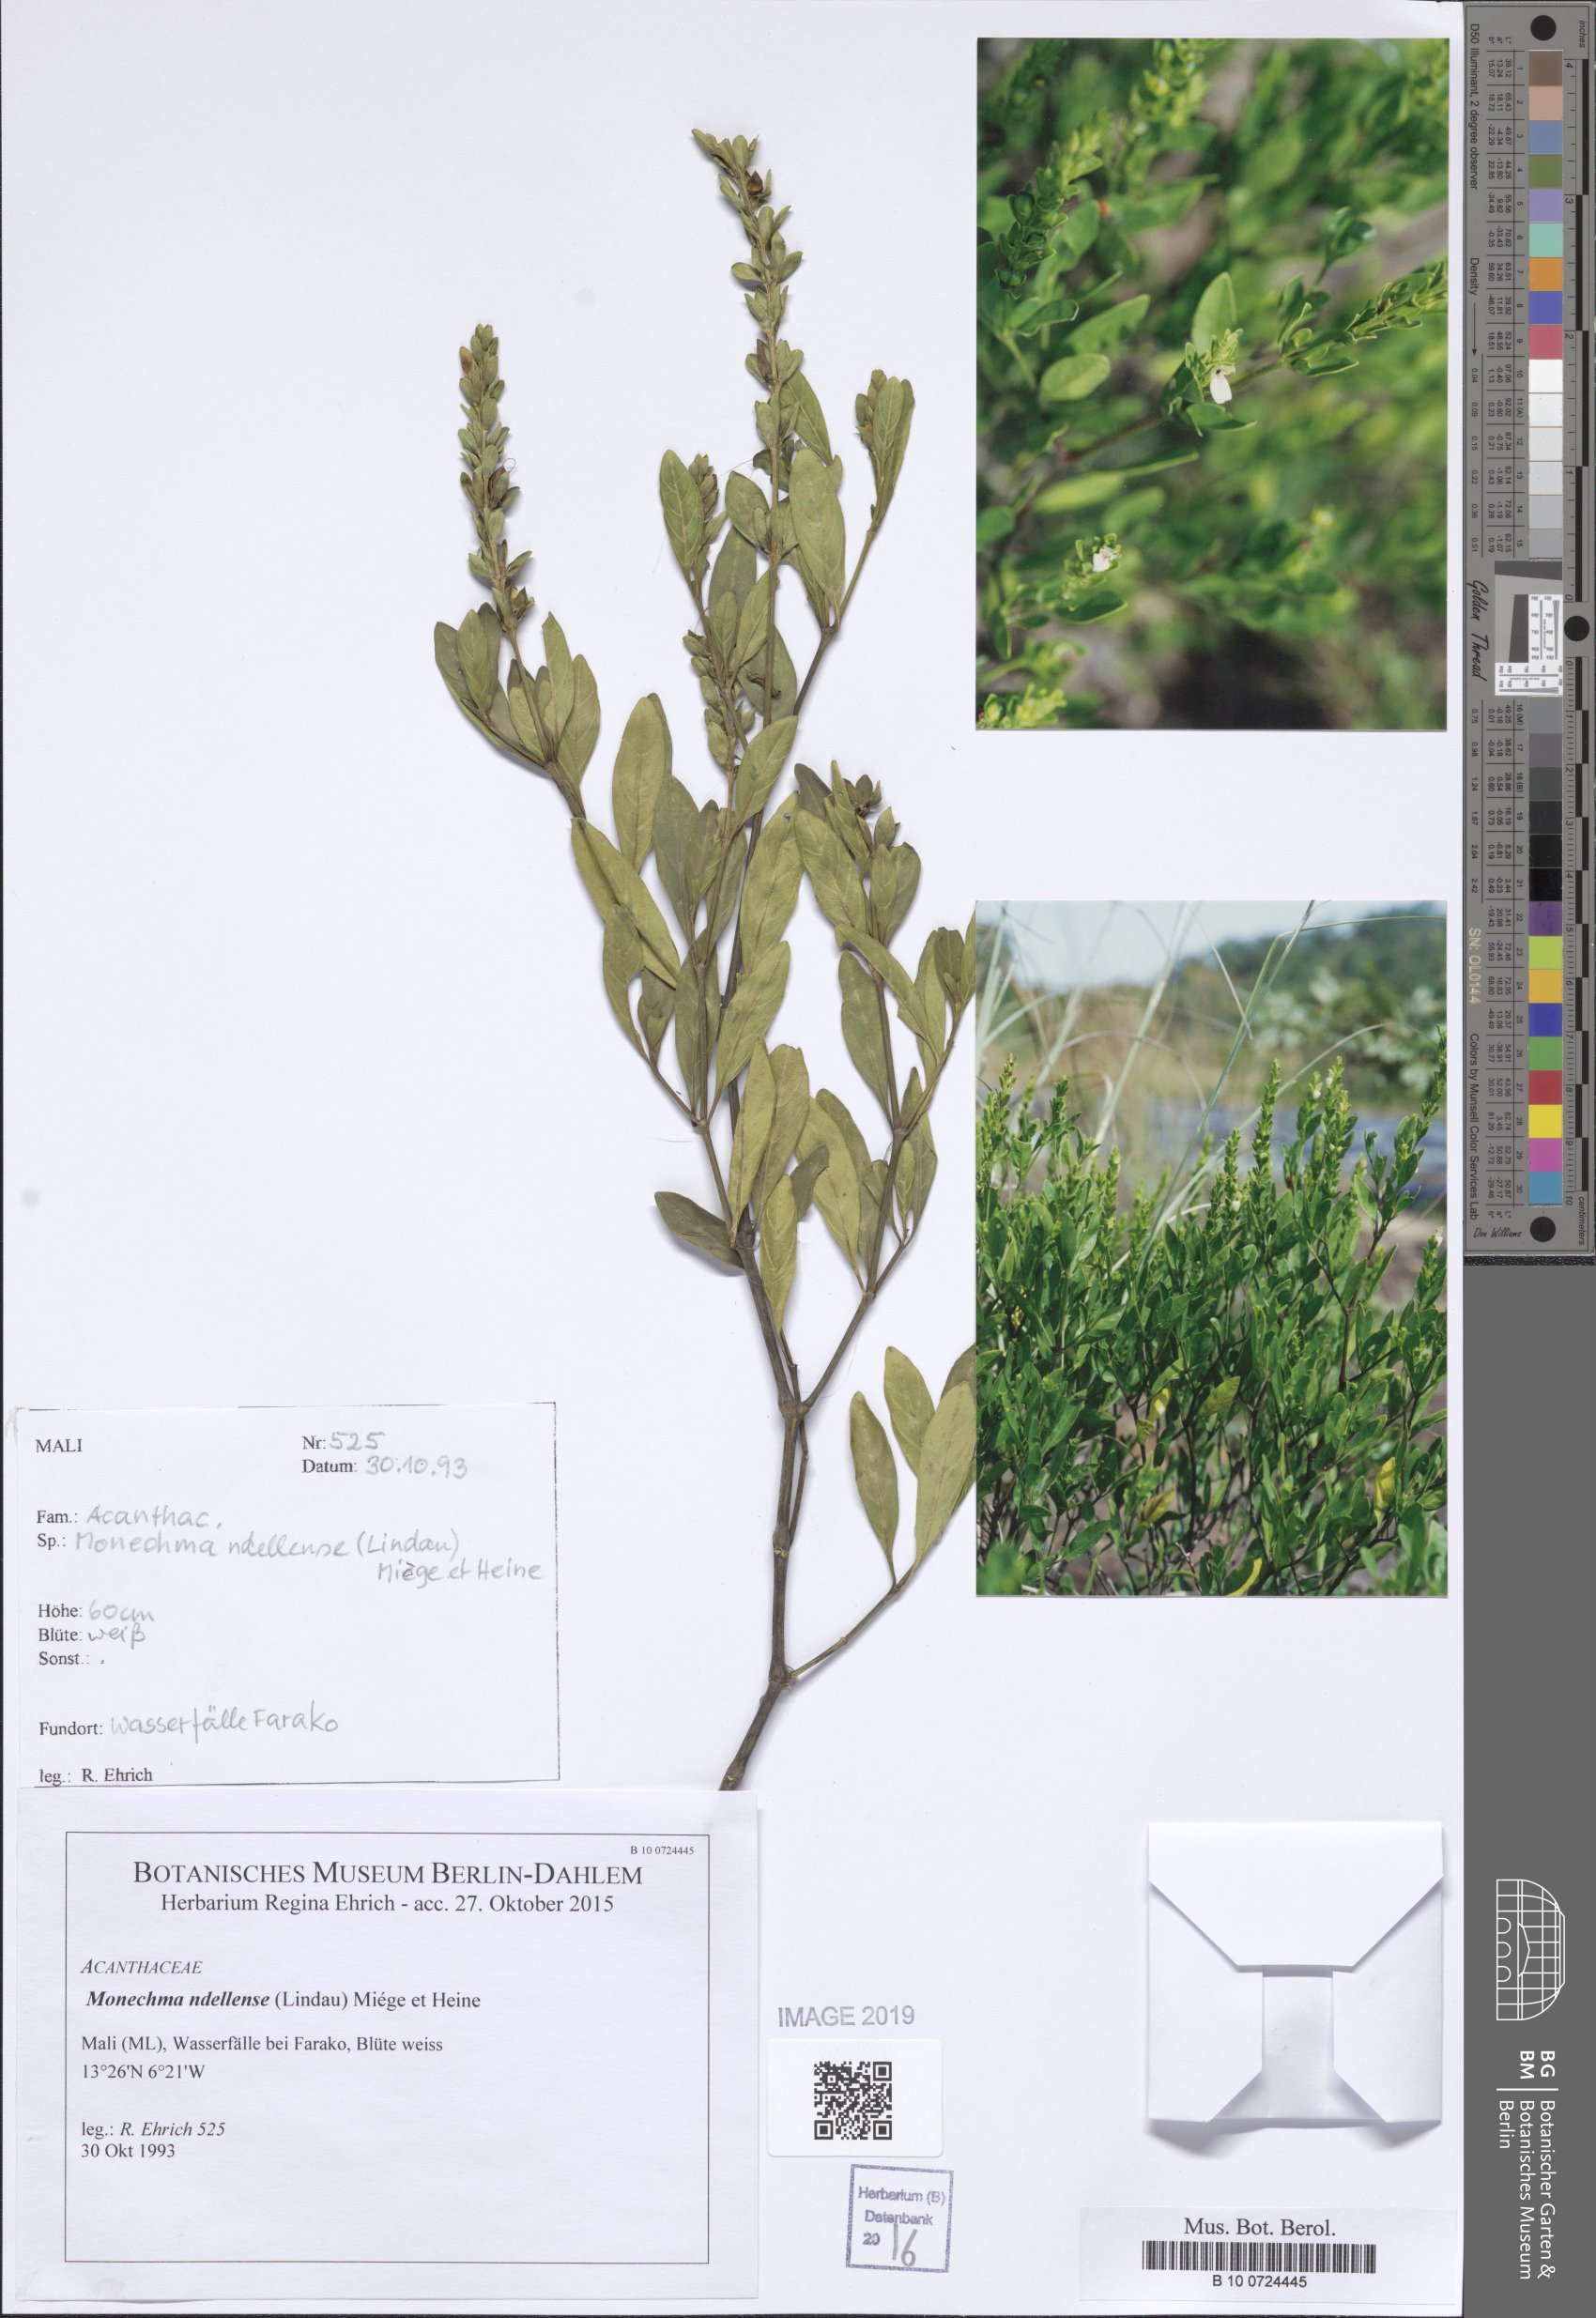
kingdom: Plantae
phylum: Tracheophyta
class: Magnoliopsida
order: Lamiales
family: Acanthaceae
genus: Monechma
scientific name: Monechma ndellense
